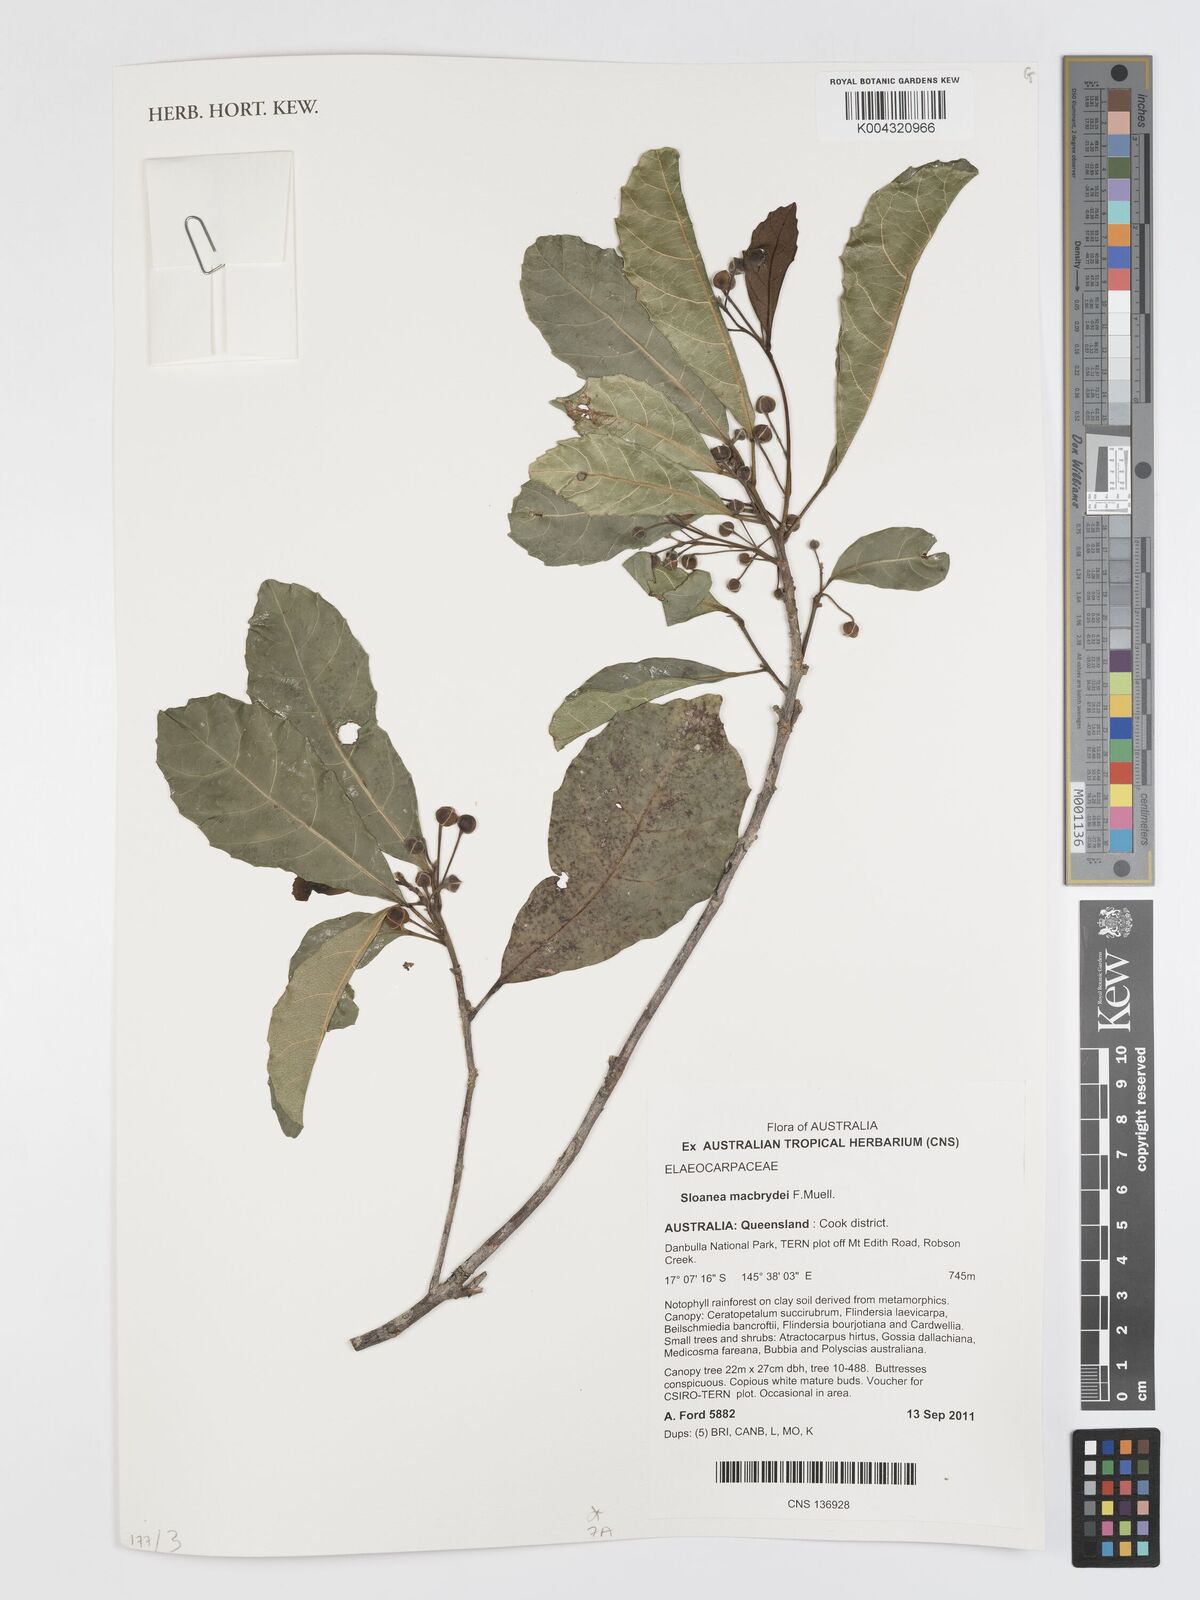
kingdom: Plantae
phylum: Tracheophyta
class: Magnoliopsida
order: Oxalidales
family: Elaeocarpaceae
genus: Sloanea
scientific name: Sloanea macbrydei
